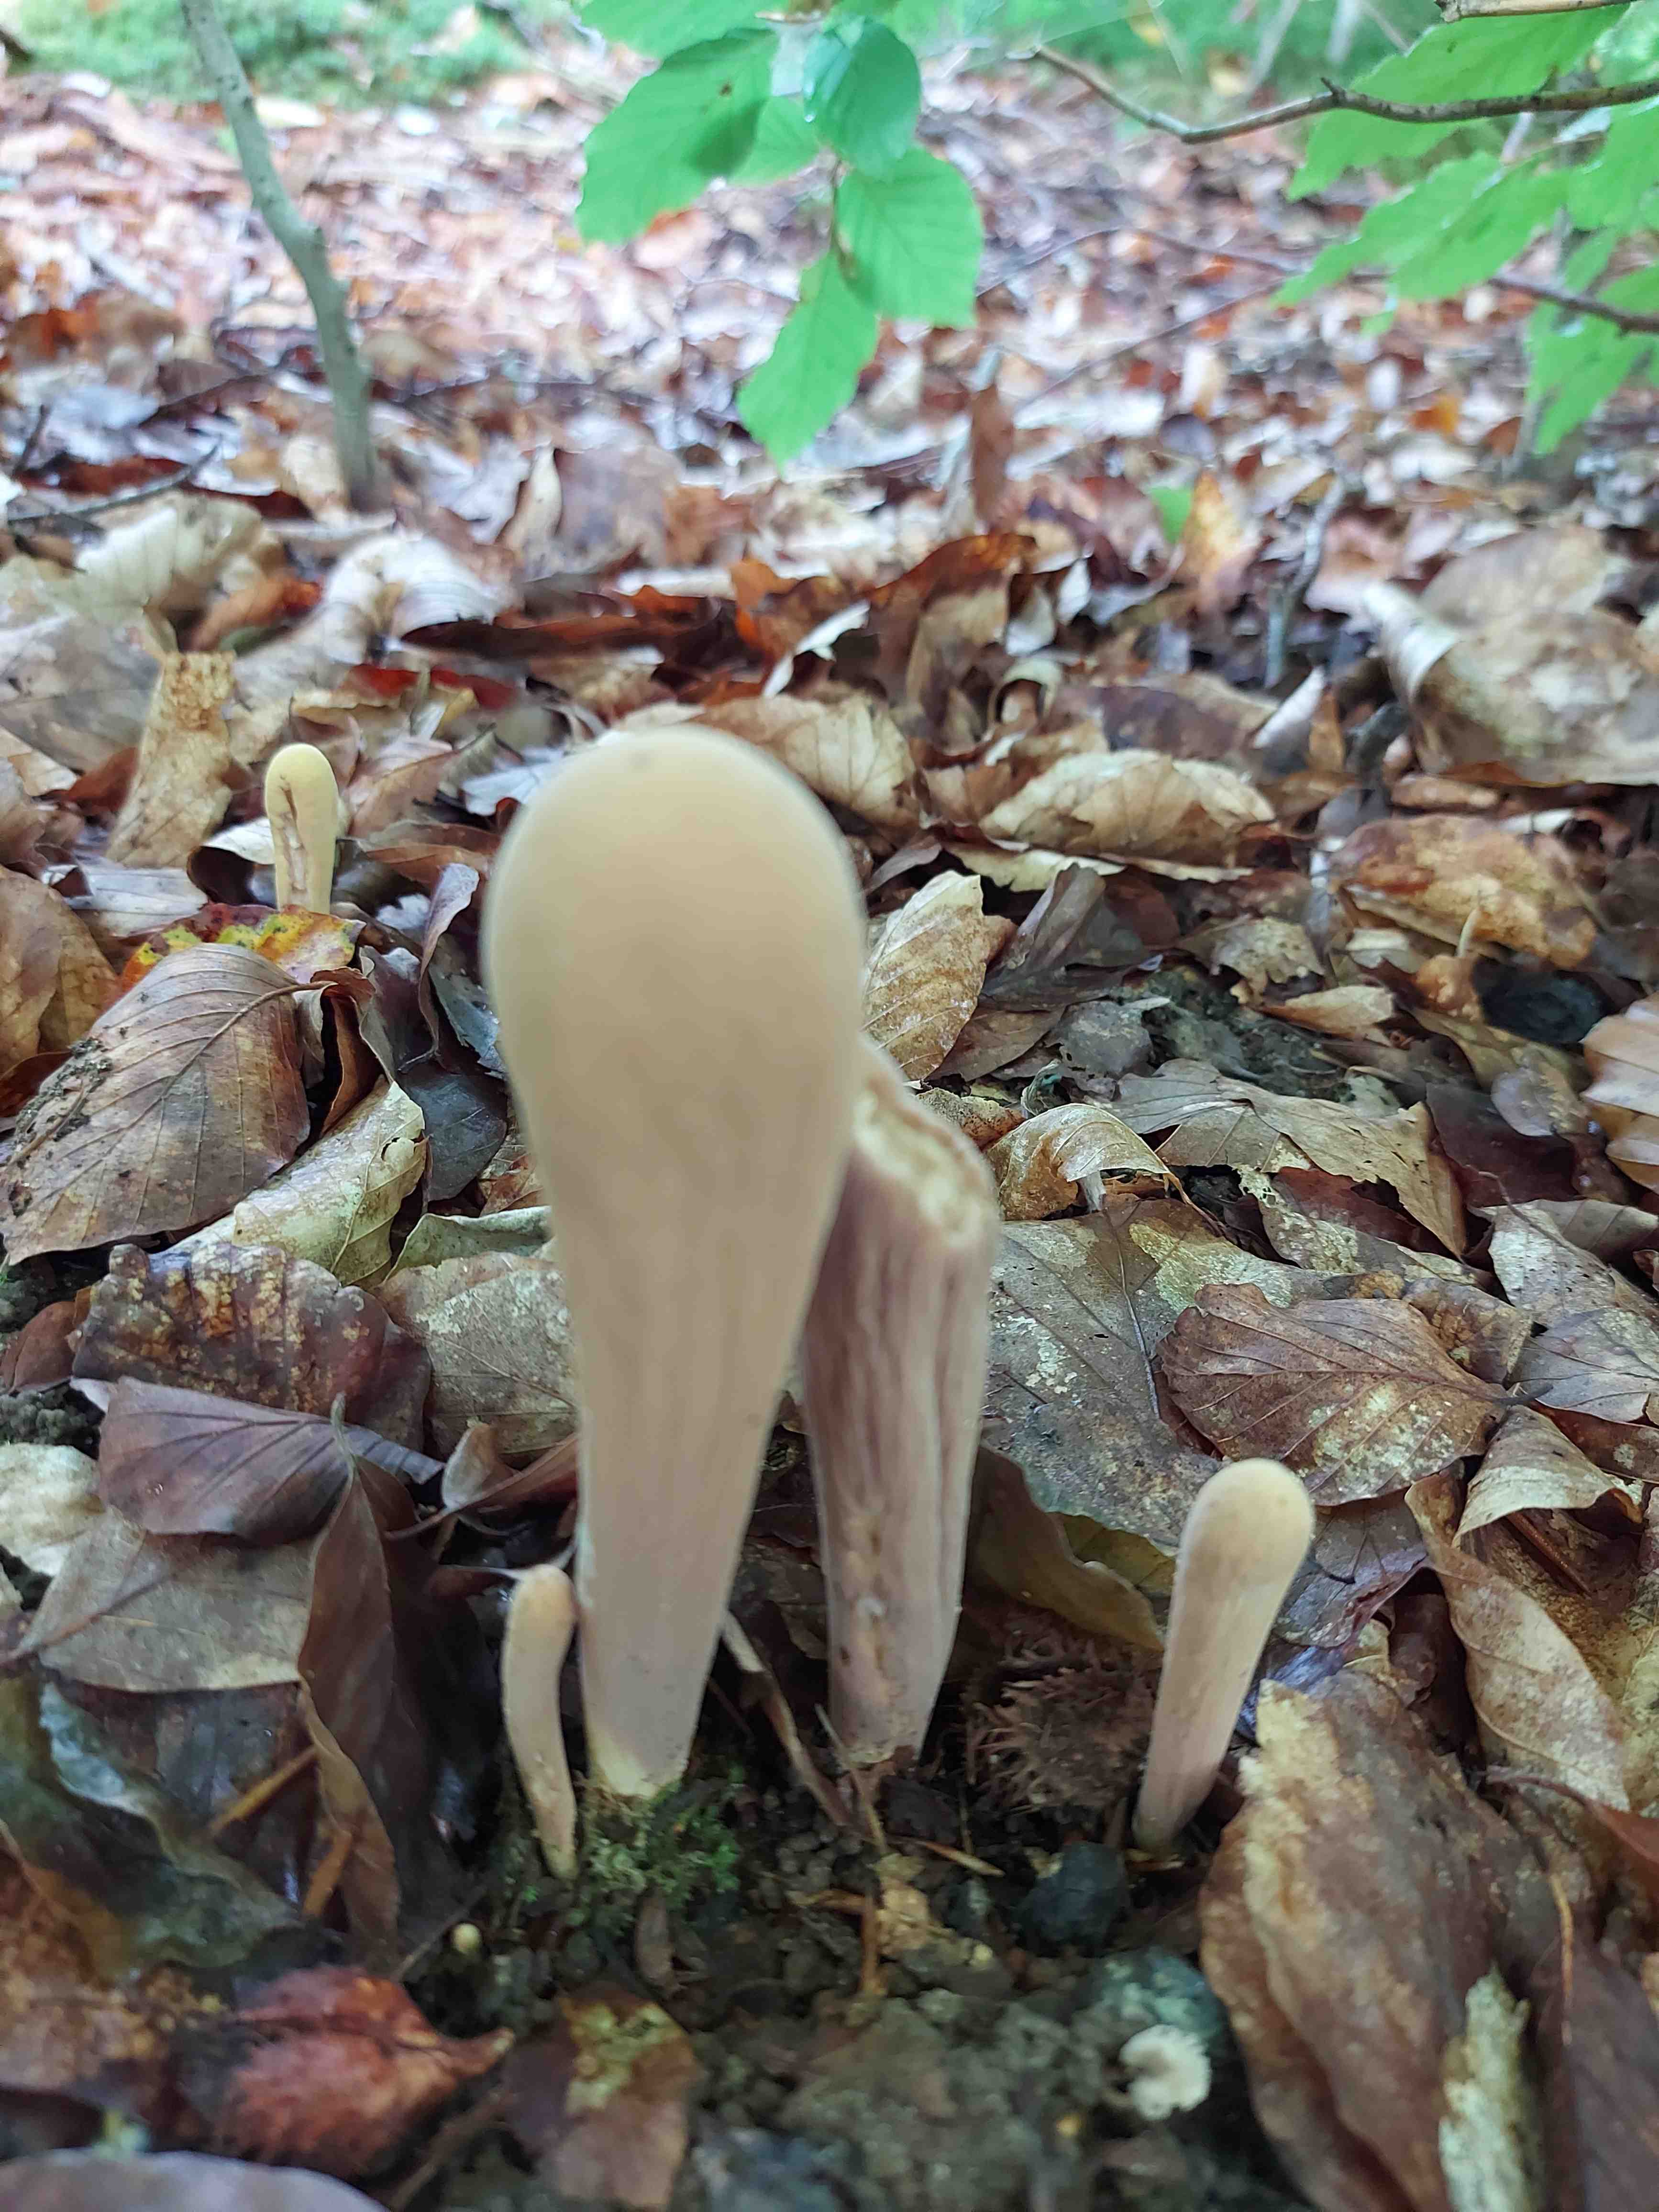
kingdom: Fungi
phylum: Basidiomycota
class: Agaricomycetes
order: Gomphales
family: Clavariadelphaceae
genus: Clavariadelphus
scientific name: Clavariadelphus pistillaris
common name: herkules-kæmpekølle
